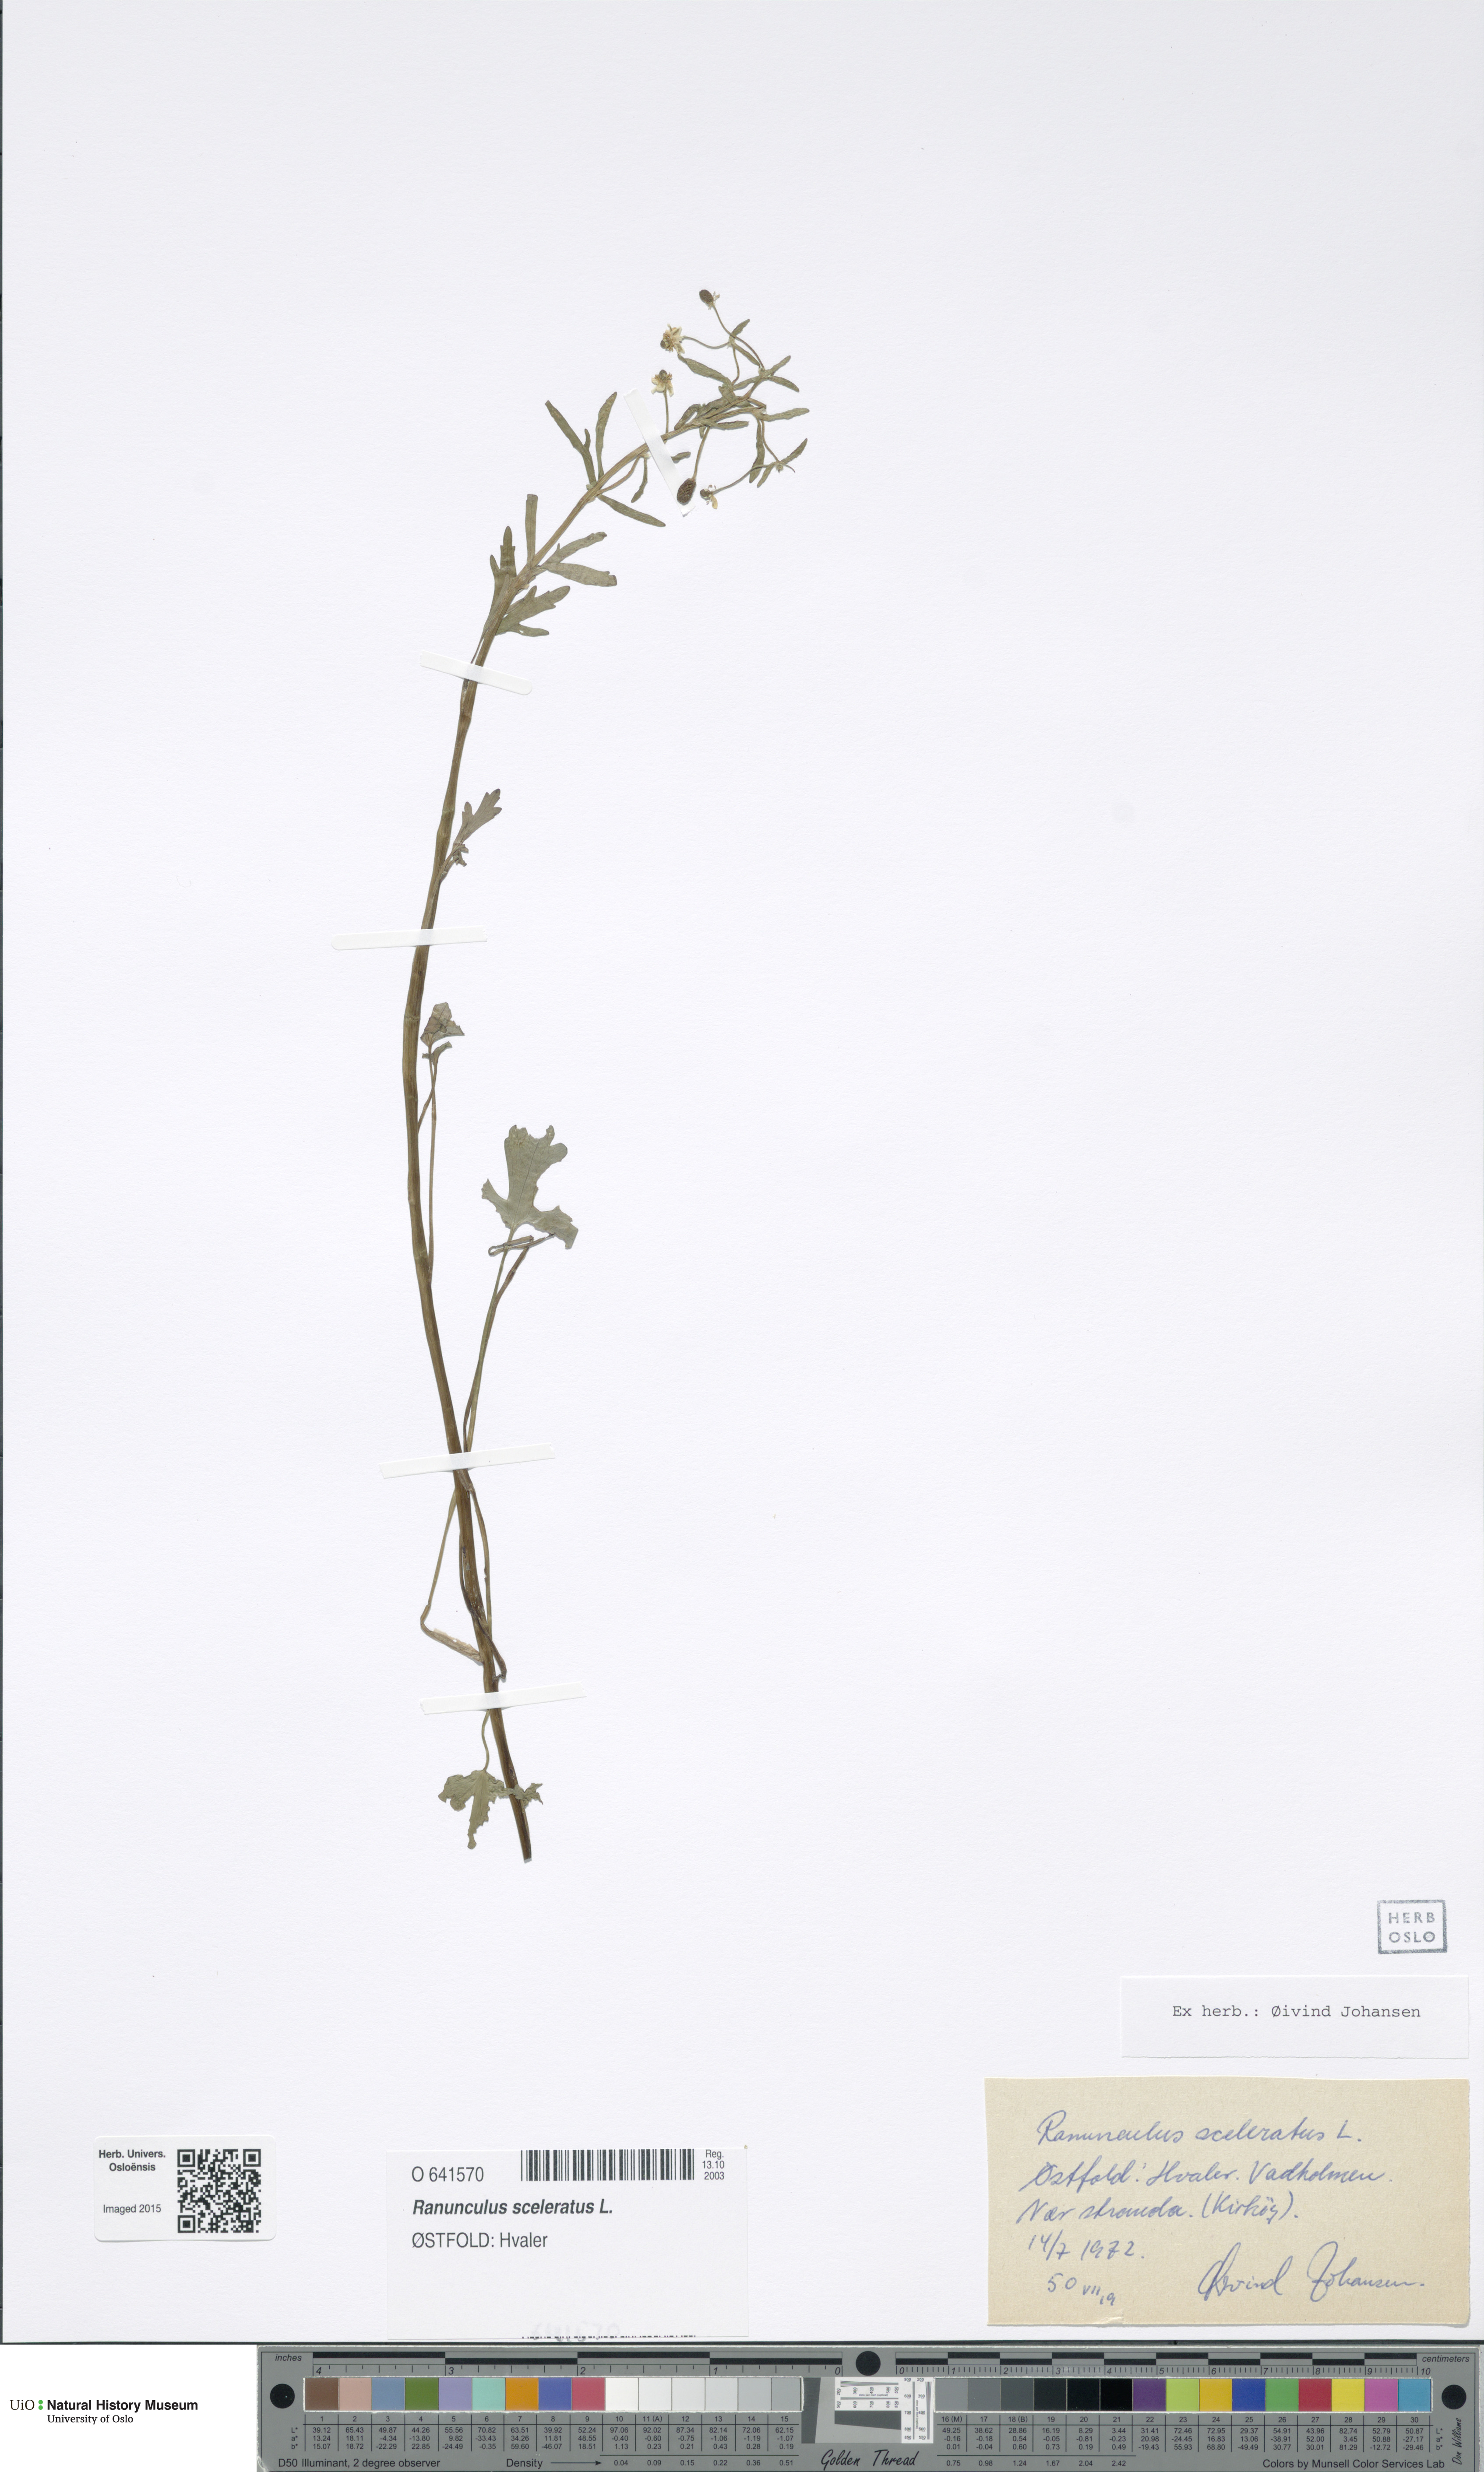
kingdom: Plantae
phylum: Tracheophyta
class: Magnoliopsida
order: Ranunculales
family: Ranunculaceae
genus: Ranunculus
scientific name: Ranunculus sceleratus
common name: Celery-leaved buttercup
